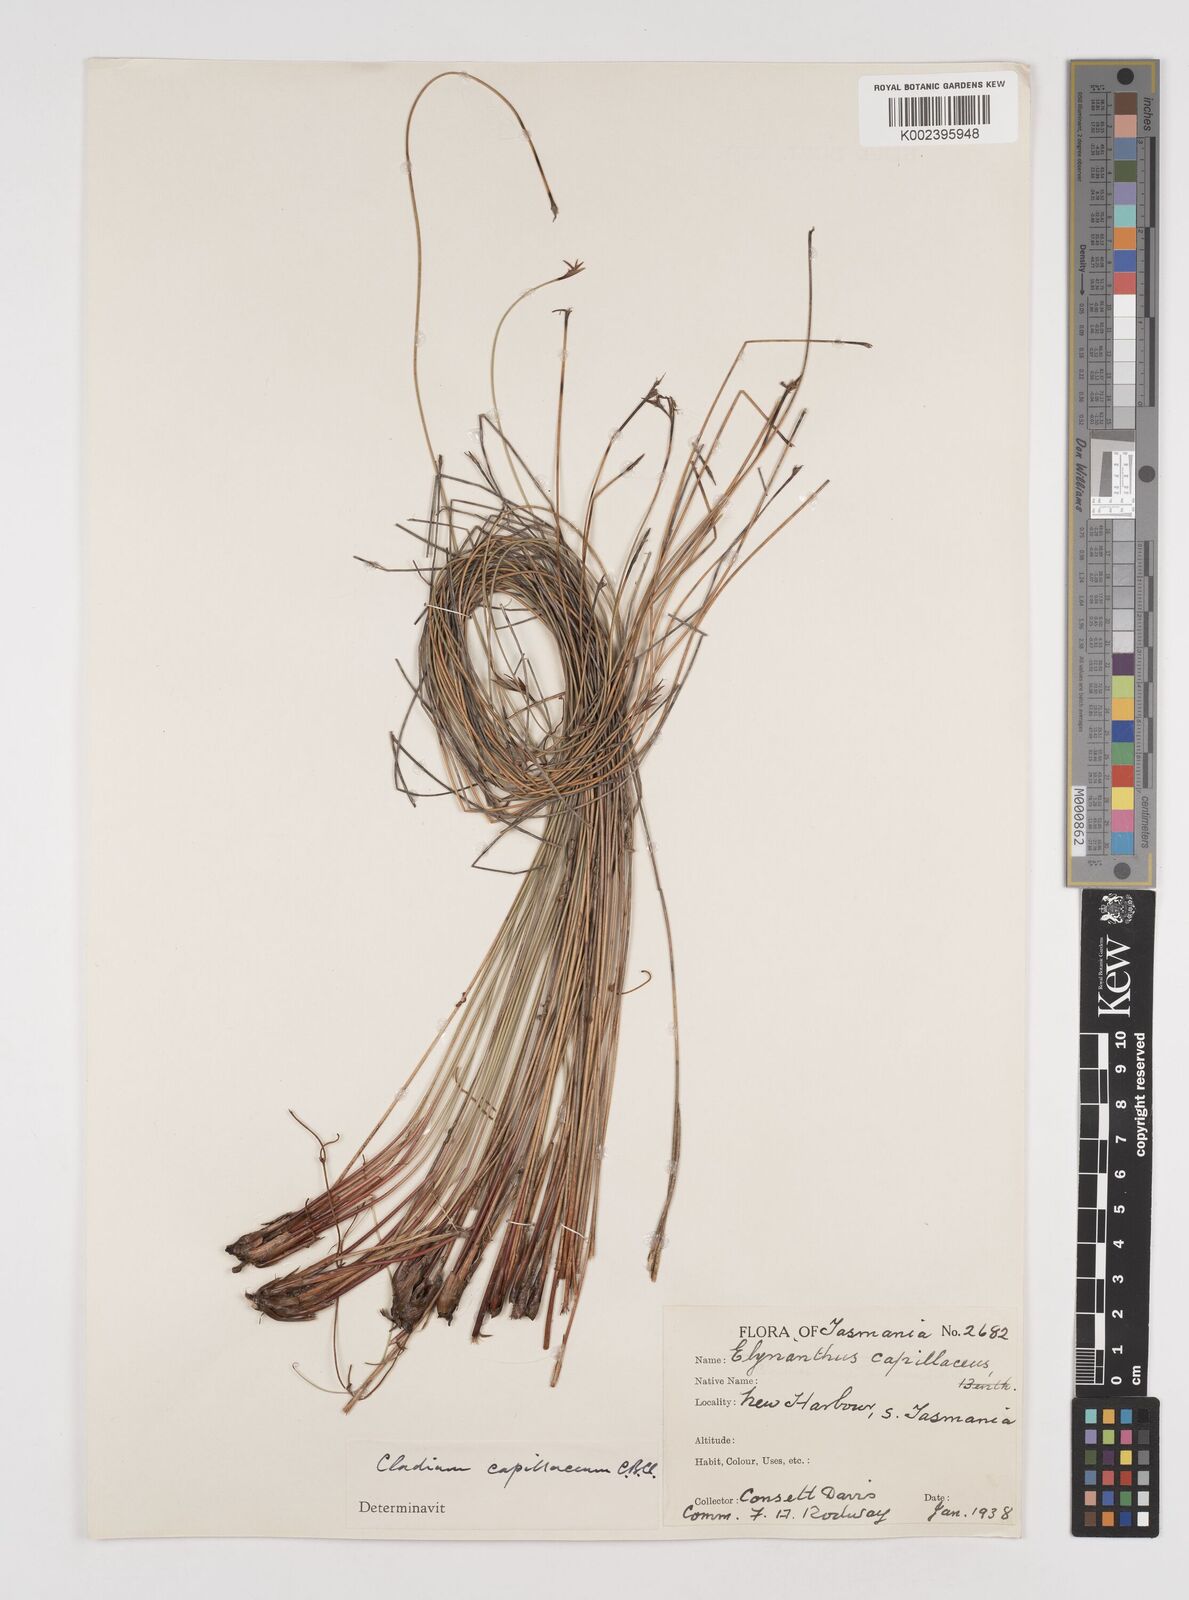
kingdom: Plantae
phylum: Tracheophyta
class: Liliopsida
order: Poales
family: Cyperaceae
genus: Tetraria
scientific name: Tetraria capillaris
